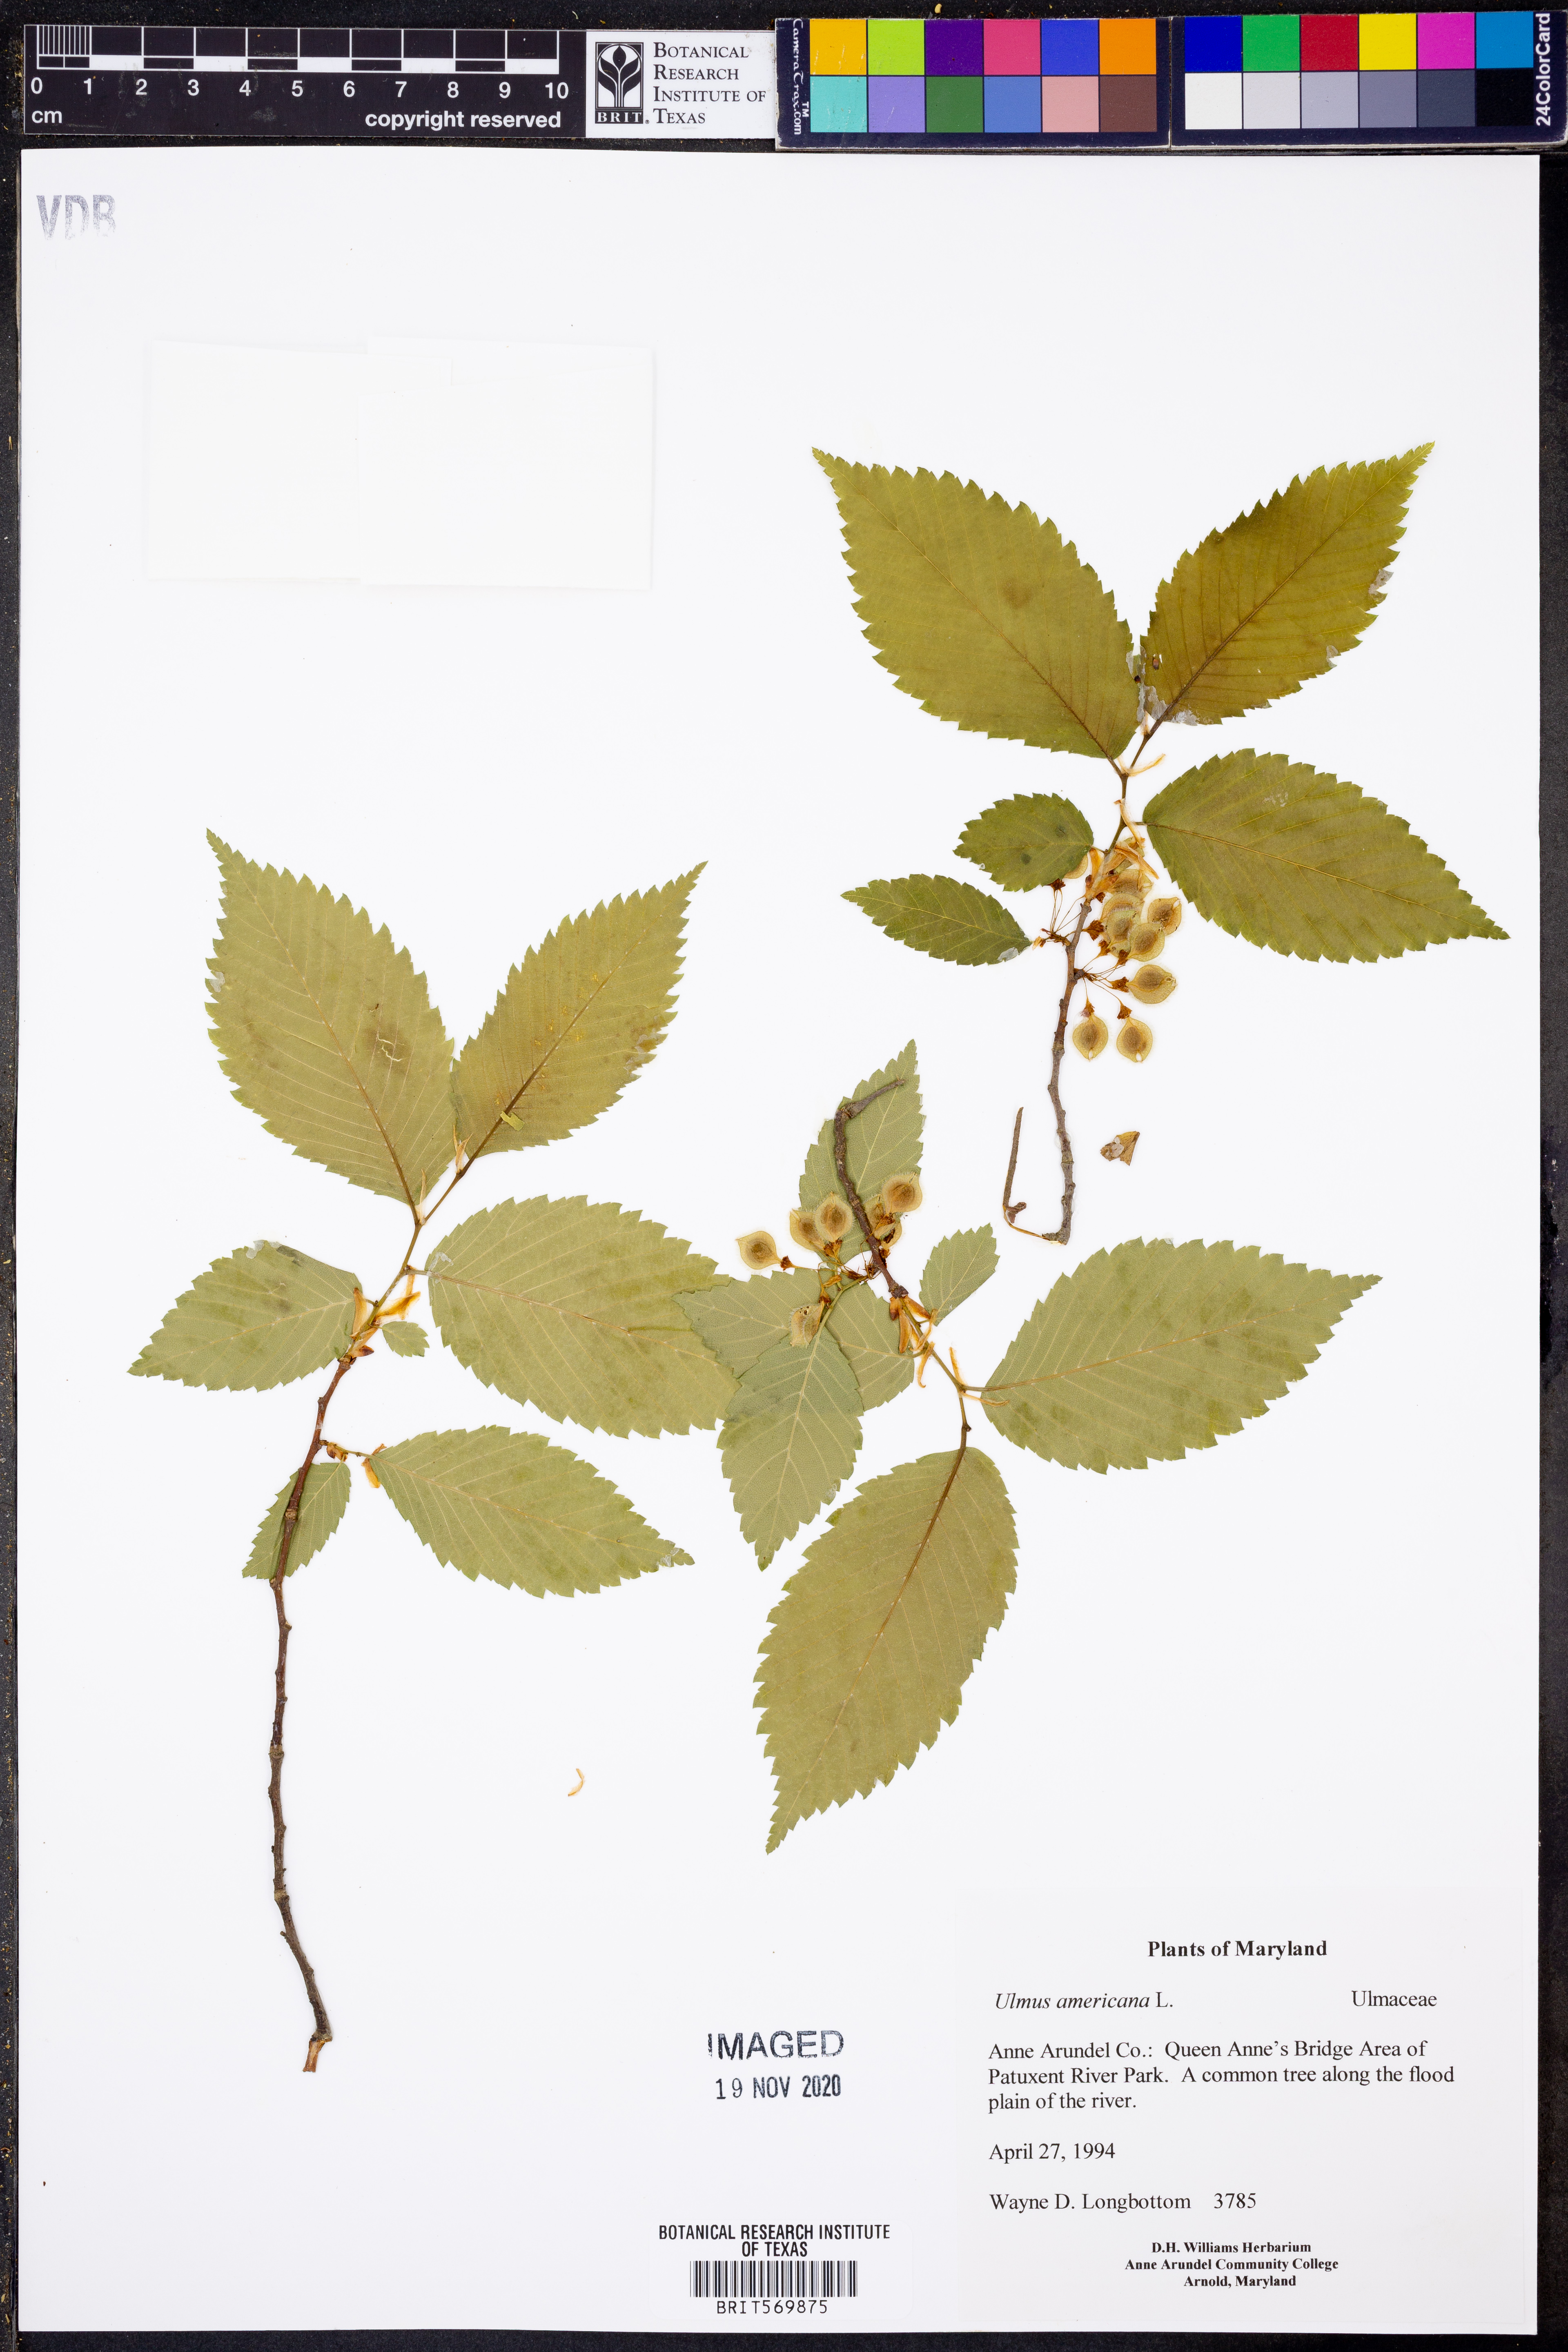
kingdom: Plantae
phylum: Tracheophyta
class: Magnoliopsida
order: Rosales
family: Ulmaceae
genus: Ulmus
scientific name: Ulmus americana
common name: American elm
